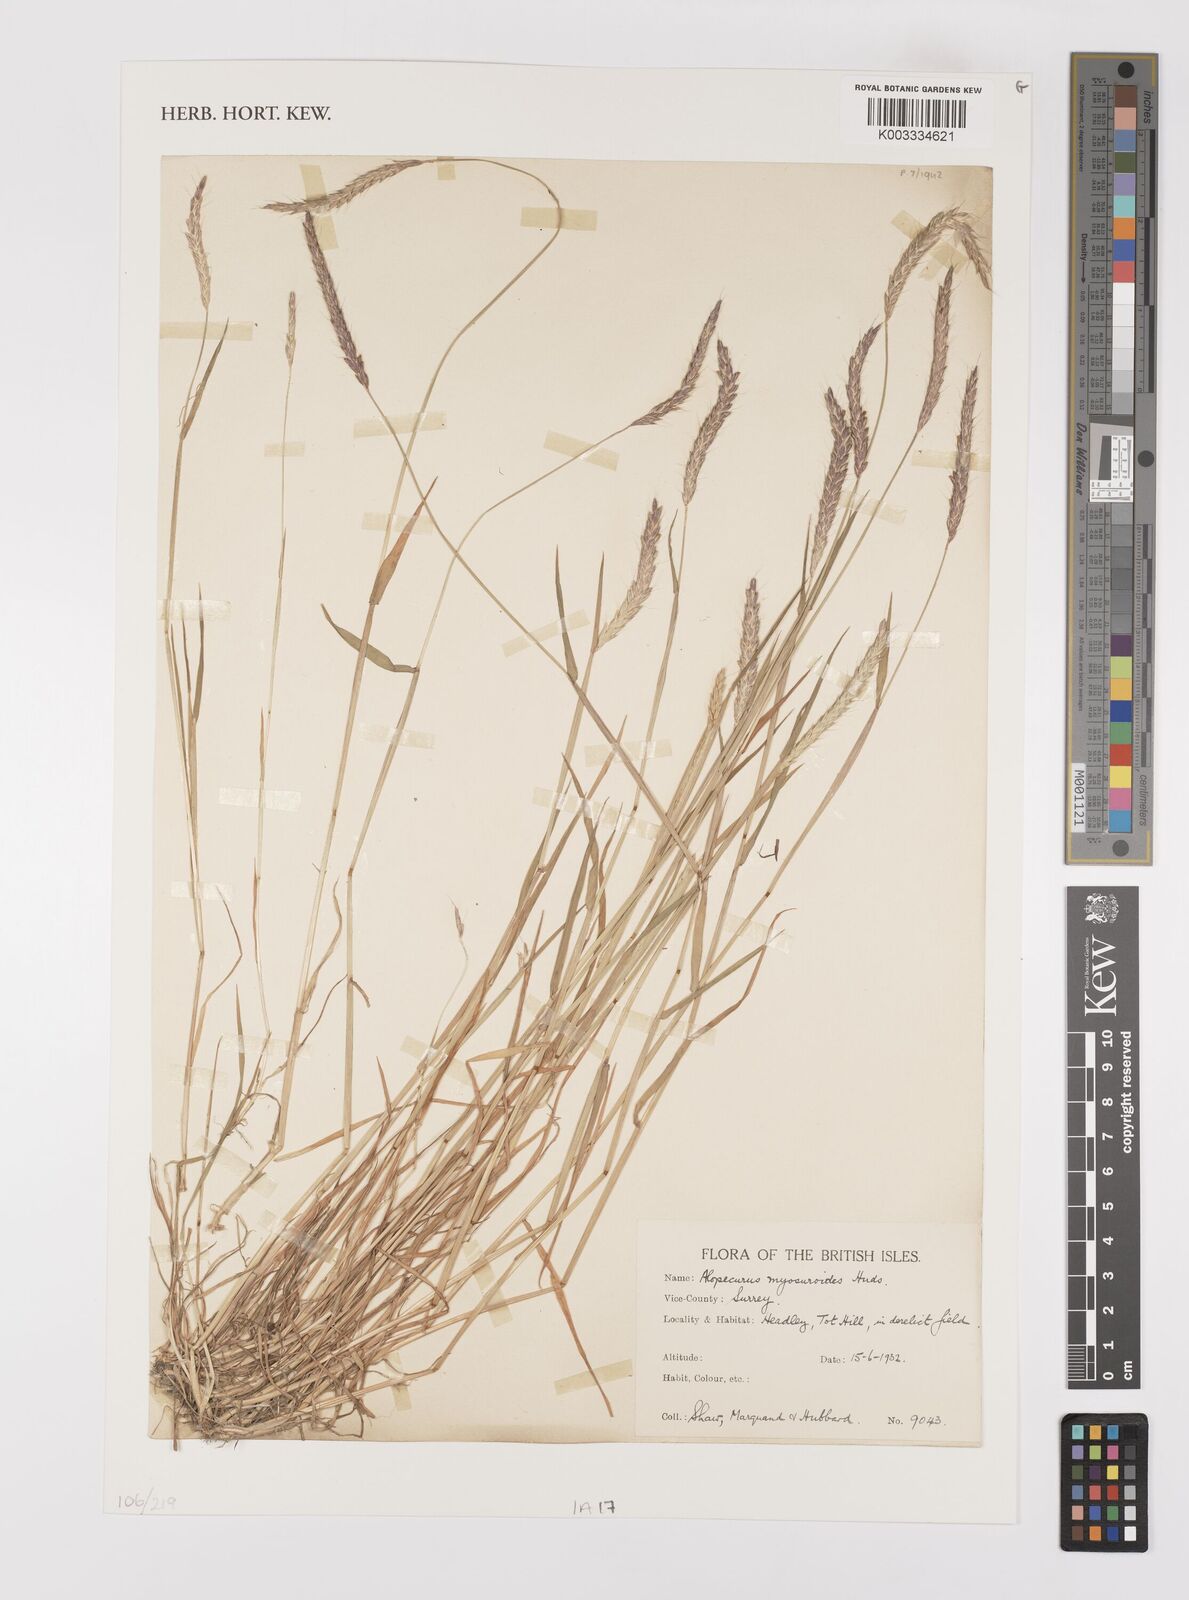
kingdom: Plantae
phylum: Tracheophyta
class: Liliopsida
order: Poales
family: Poaceae
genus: Alopecurus
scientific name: Alopecurus myosuroides
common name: Black-grass
